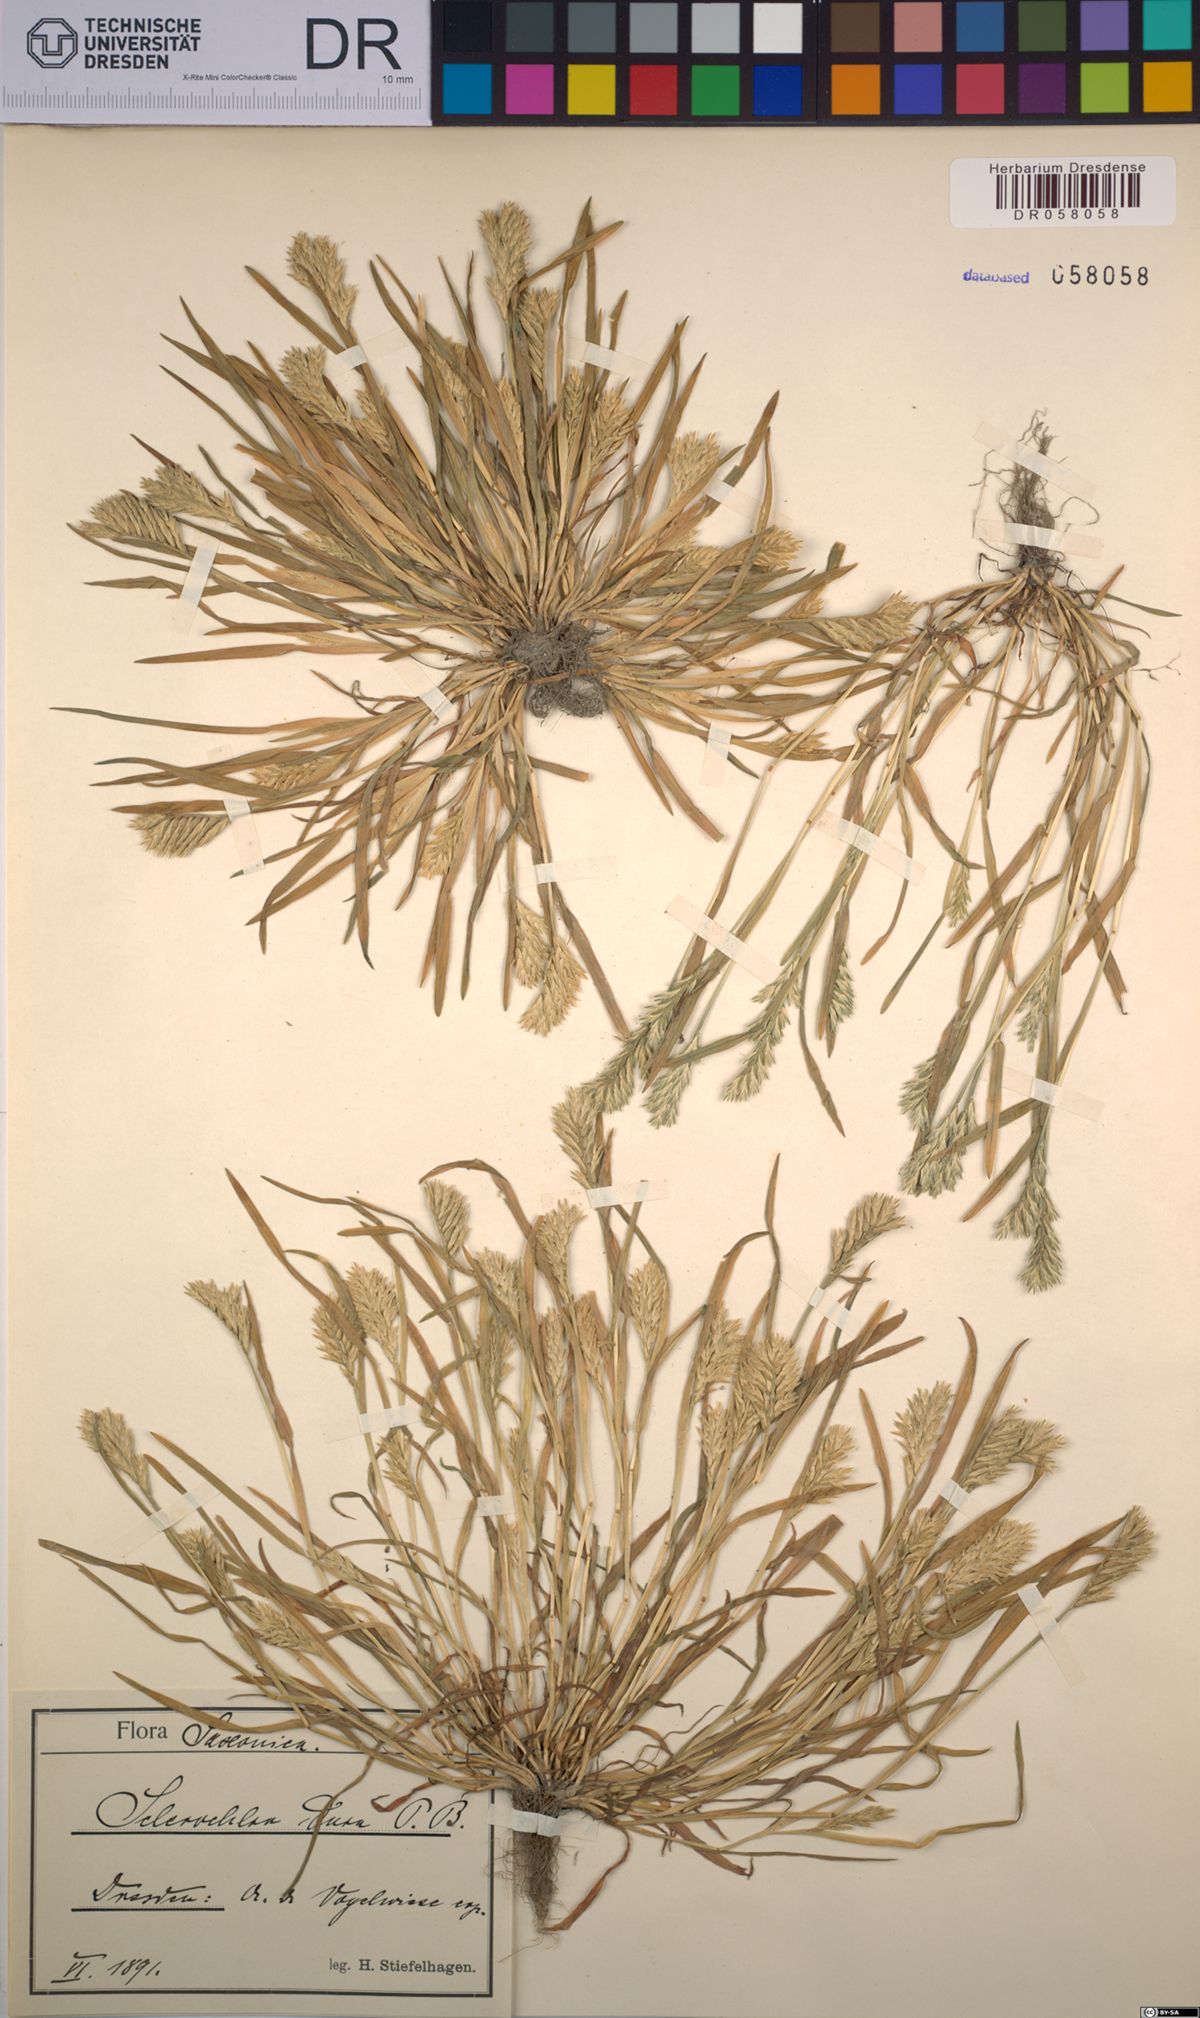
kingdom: Plantae
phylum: Tracheophyta
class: Liliopsida
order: Poales
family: Poaceae
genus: Sclerochloa
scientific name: Sclerochloa dura
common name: Common hardgrass
